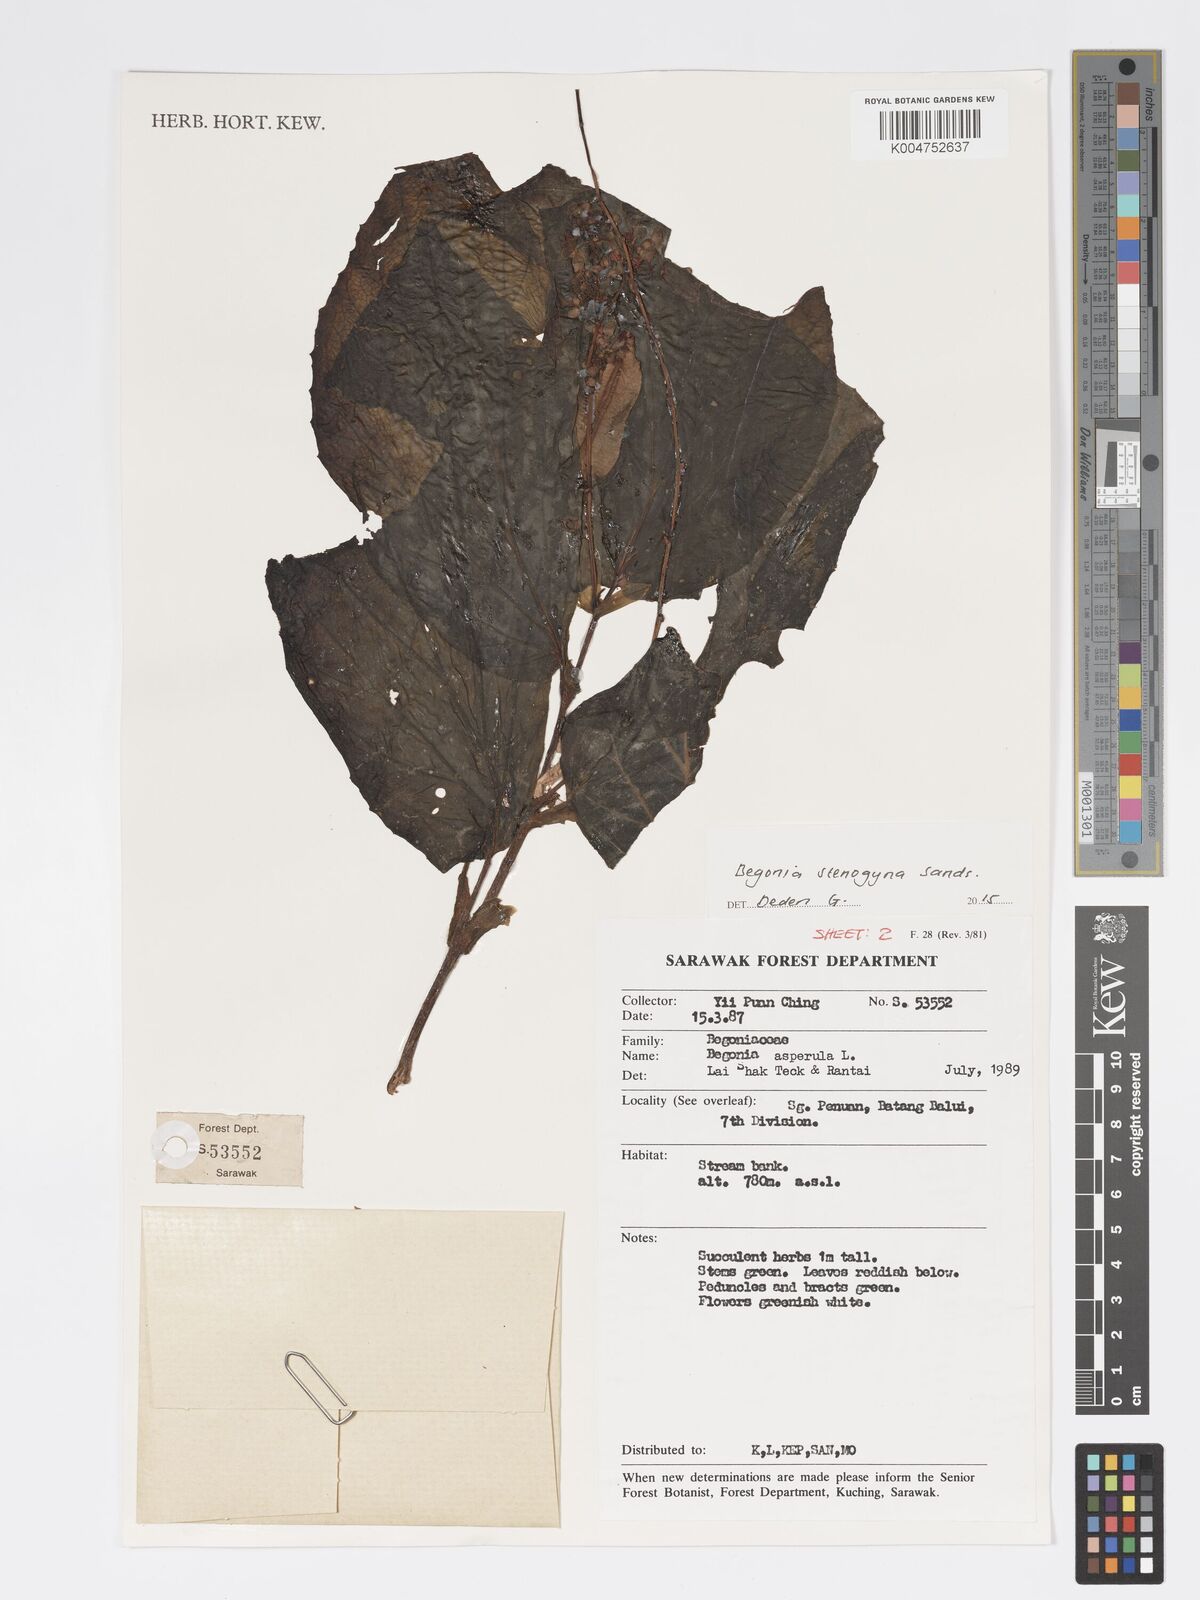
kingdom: Plantae
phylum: Tracheophyta
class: Magnoliopsida
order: Cucurbitales
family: Begoniaceae
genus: Begonia
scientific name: Begonia stenogyna
